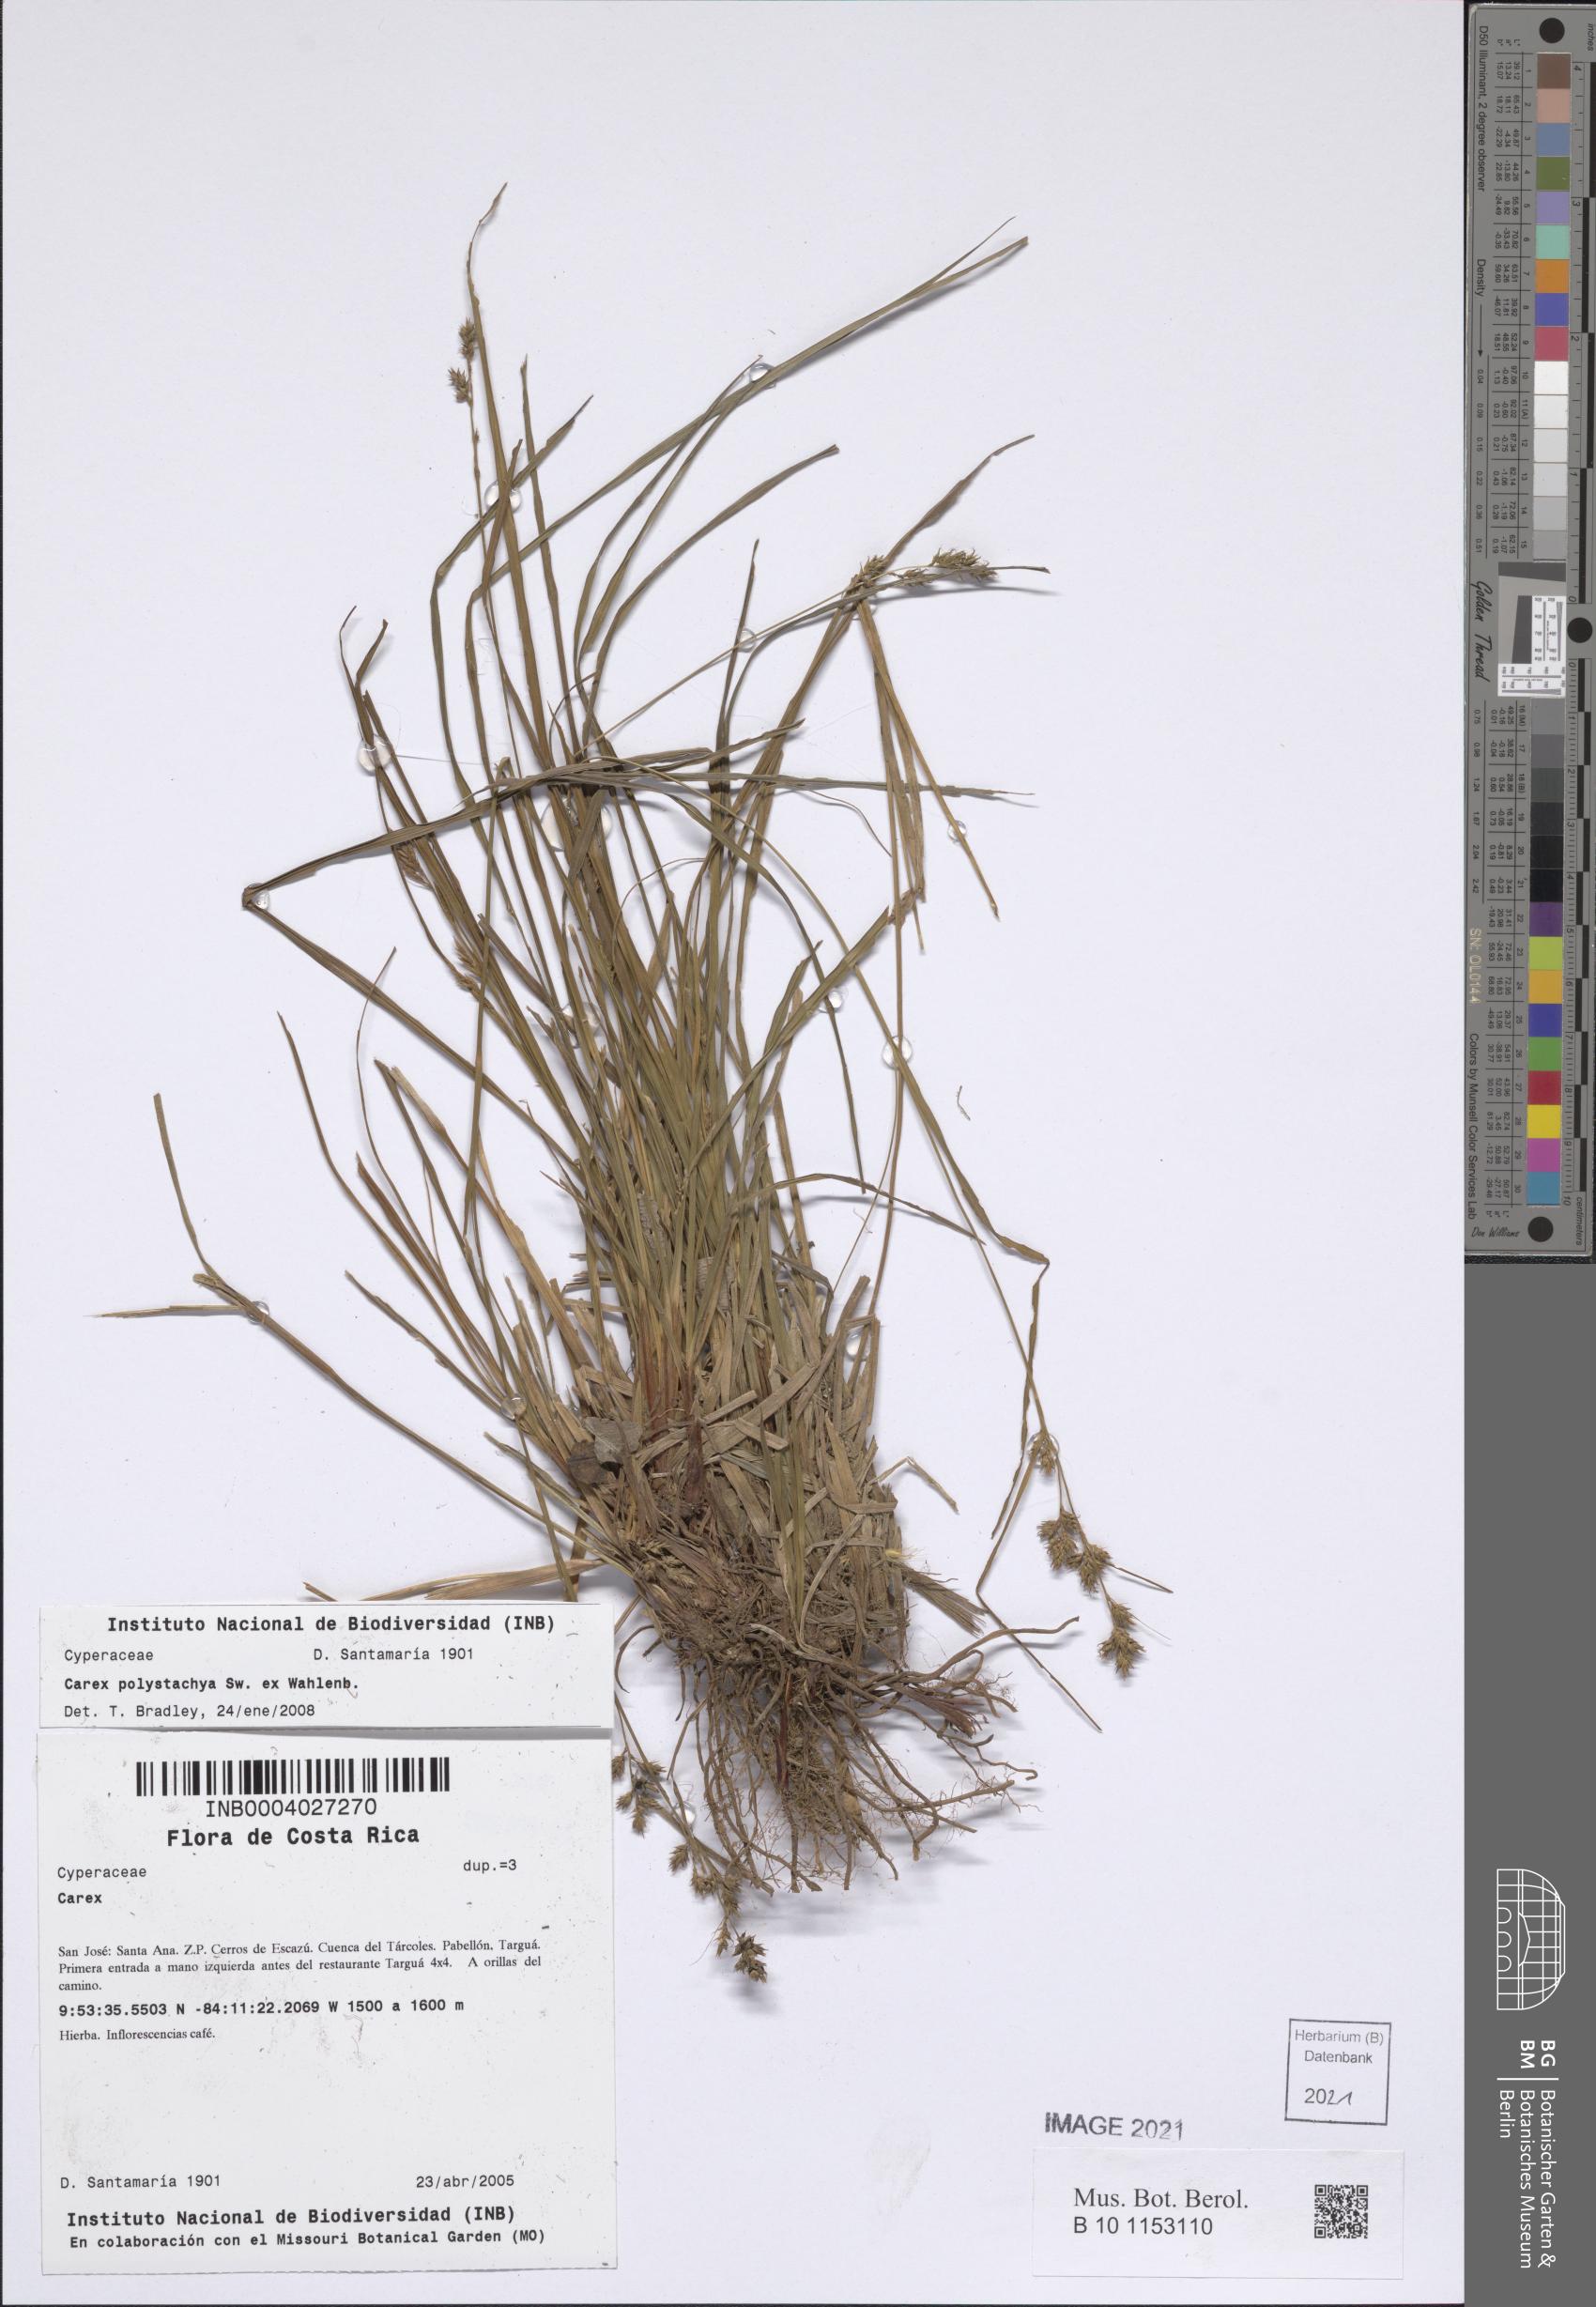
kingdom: Plantae
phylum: Tracheophyta
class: Liliopsida
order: Poales
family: Cyperaceae
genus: Carex
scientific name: Carex polystachya
